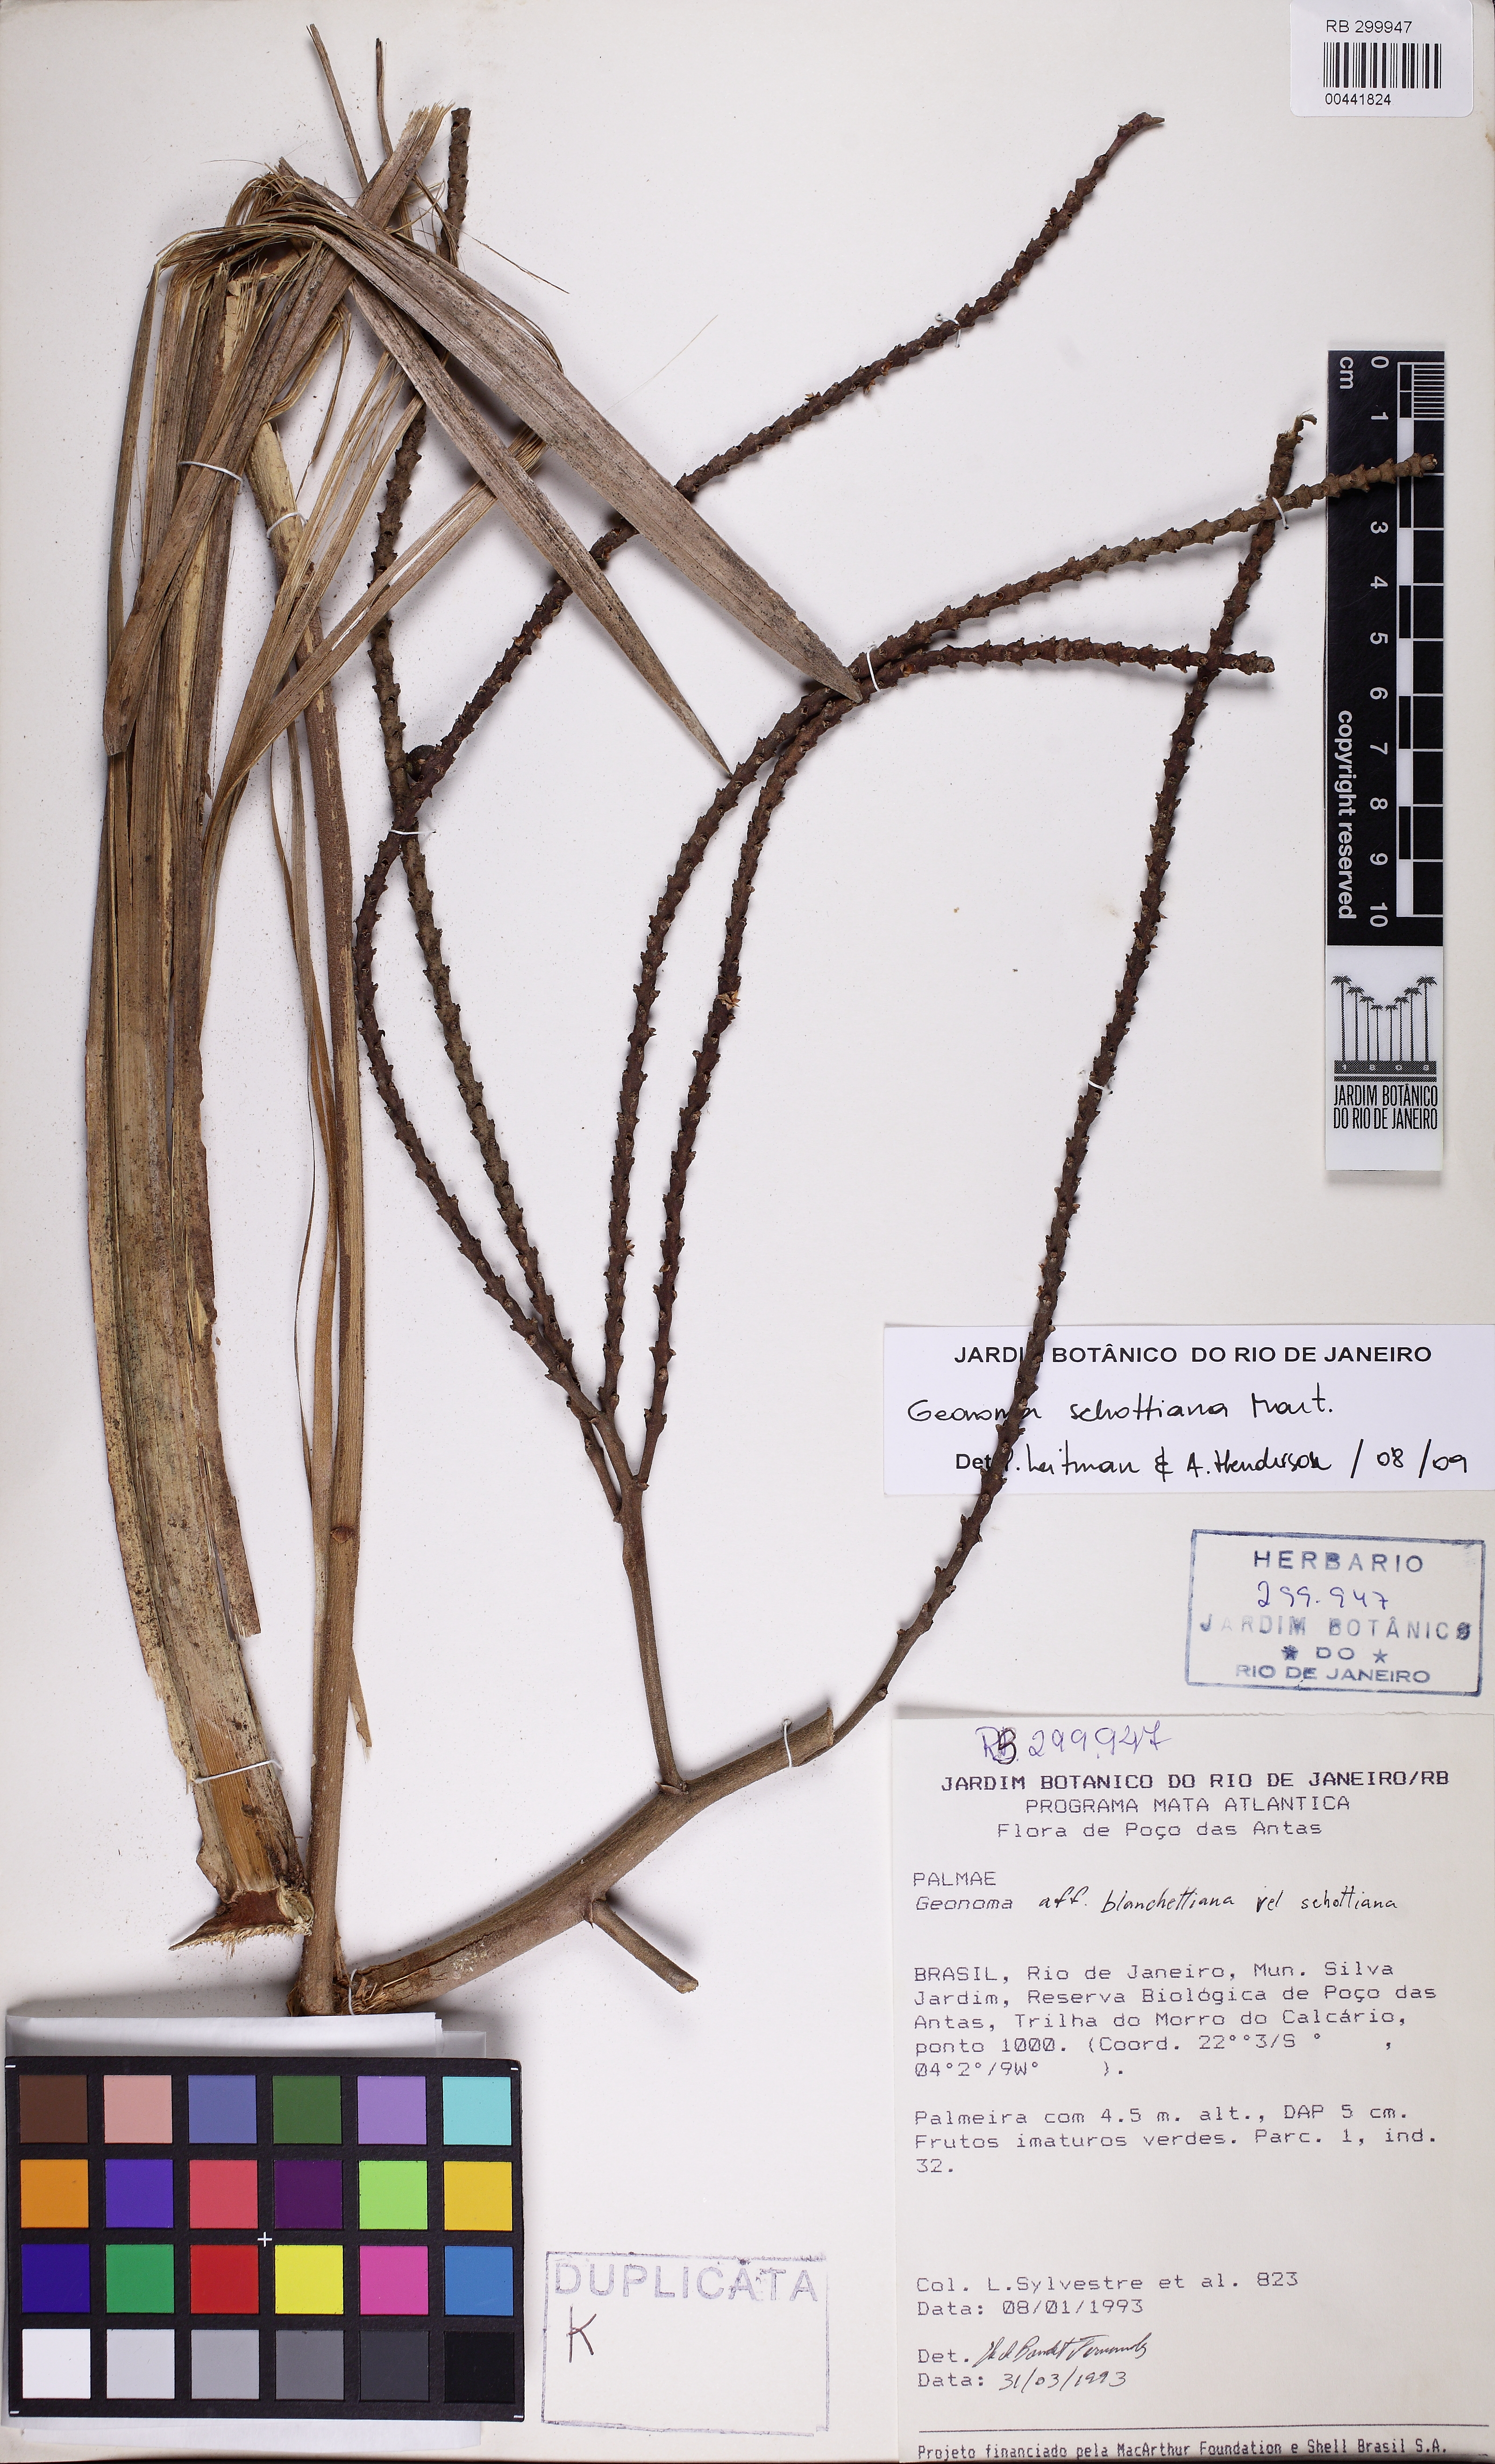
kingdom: Plantae
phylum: Tracheophyta
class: Liliopsida
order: Arecales
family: Arecaceae
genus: Geonoma
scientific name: Geonoma schottiana
